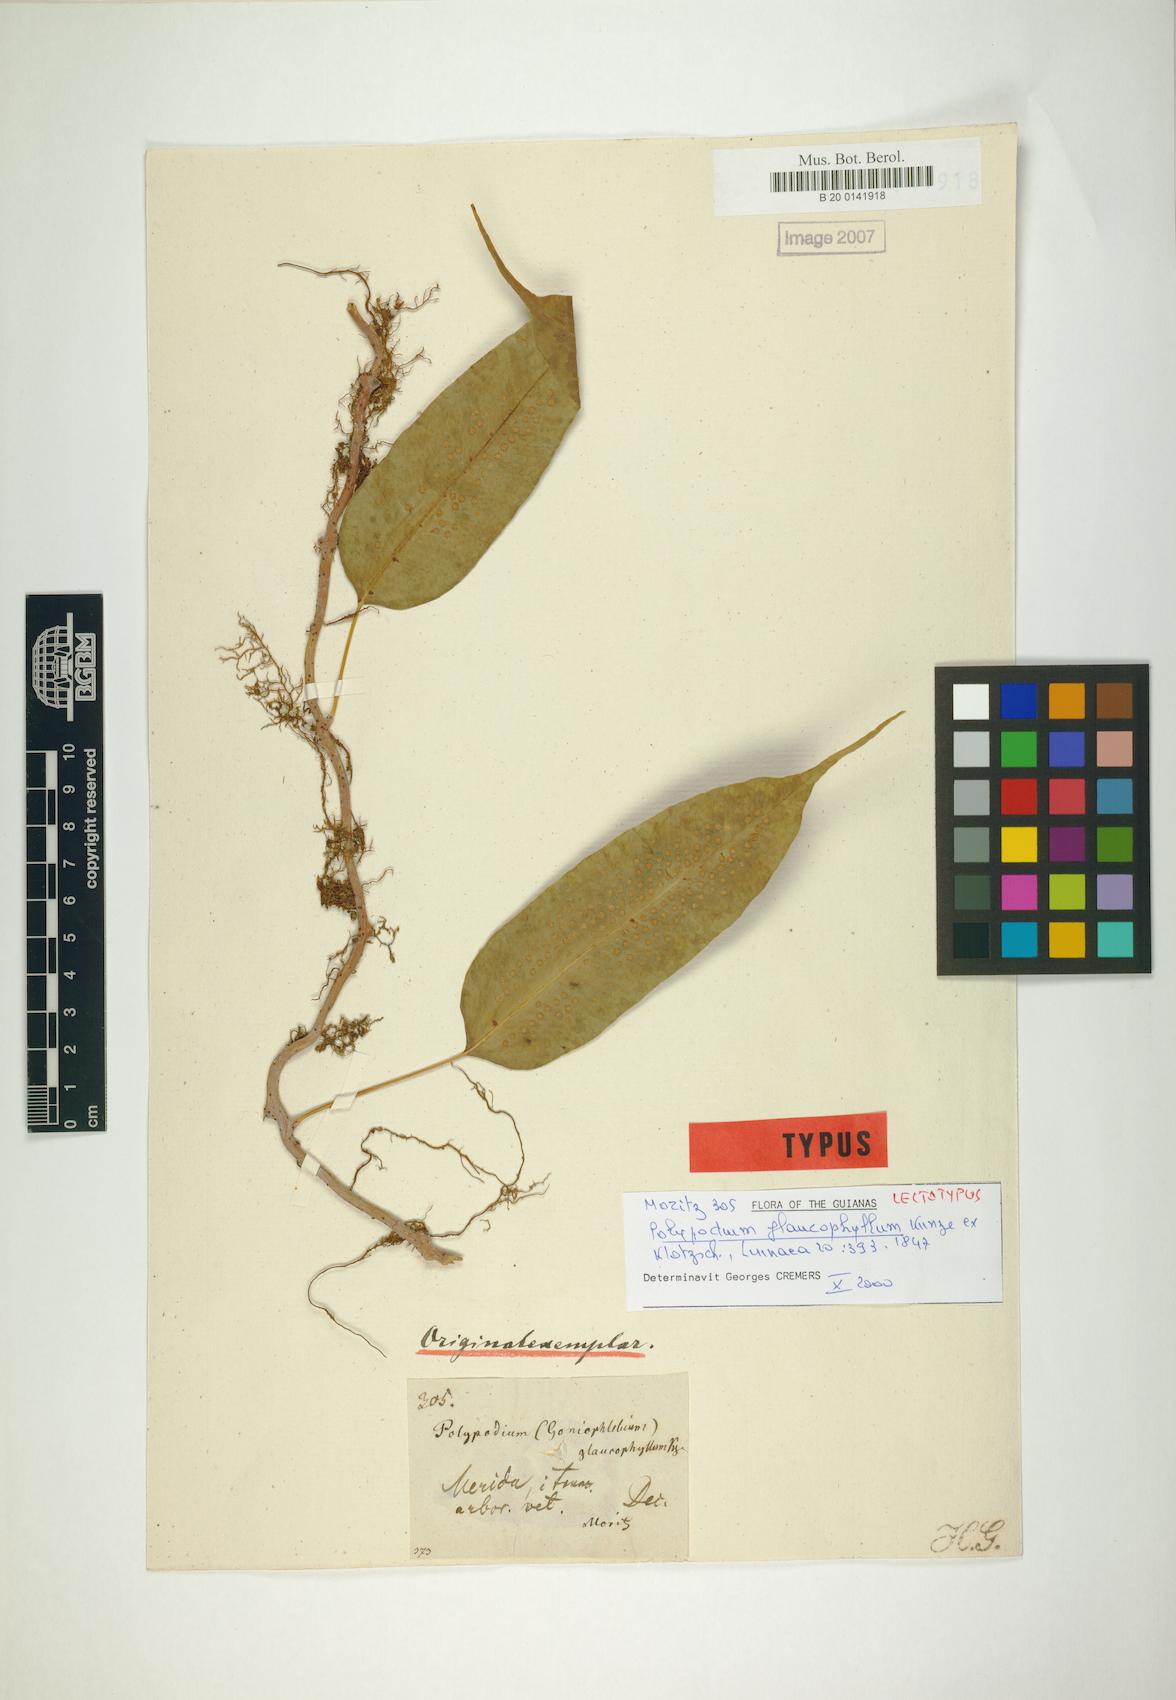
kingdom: Plantae
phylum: Tracheophyta
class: Polypodiopsida
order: Polypodiales
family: Polypodiaceae
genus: Serpocaulon
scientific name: Serpocaulon levigatum
